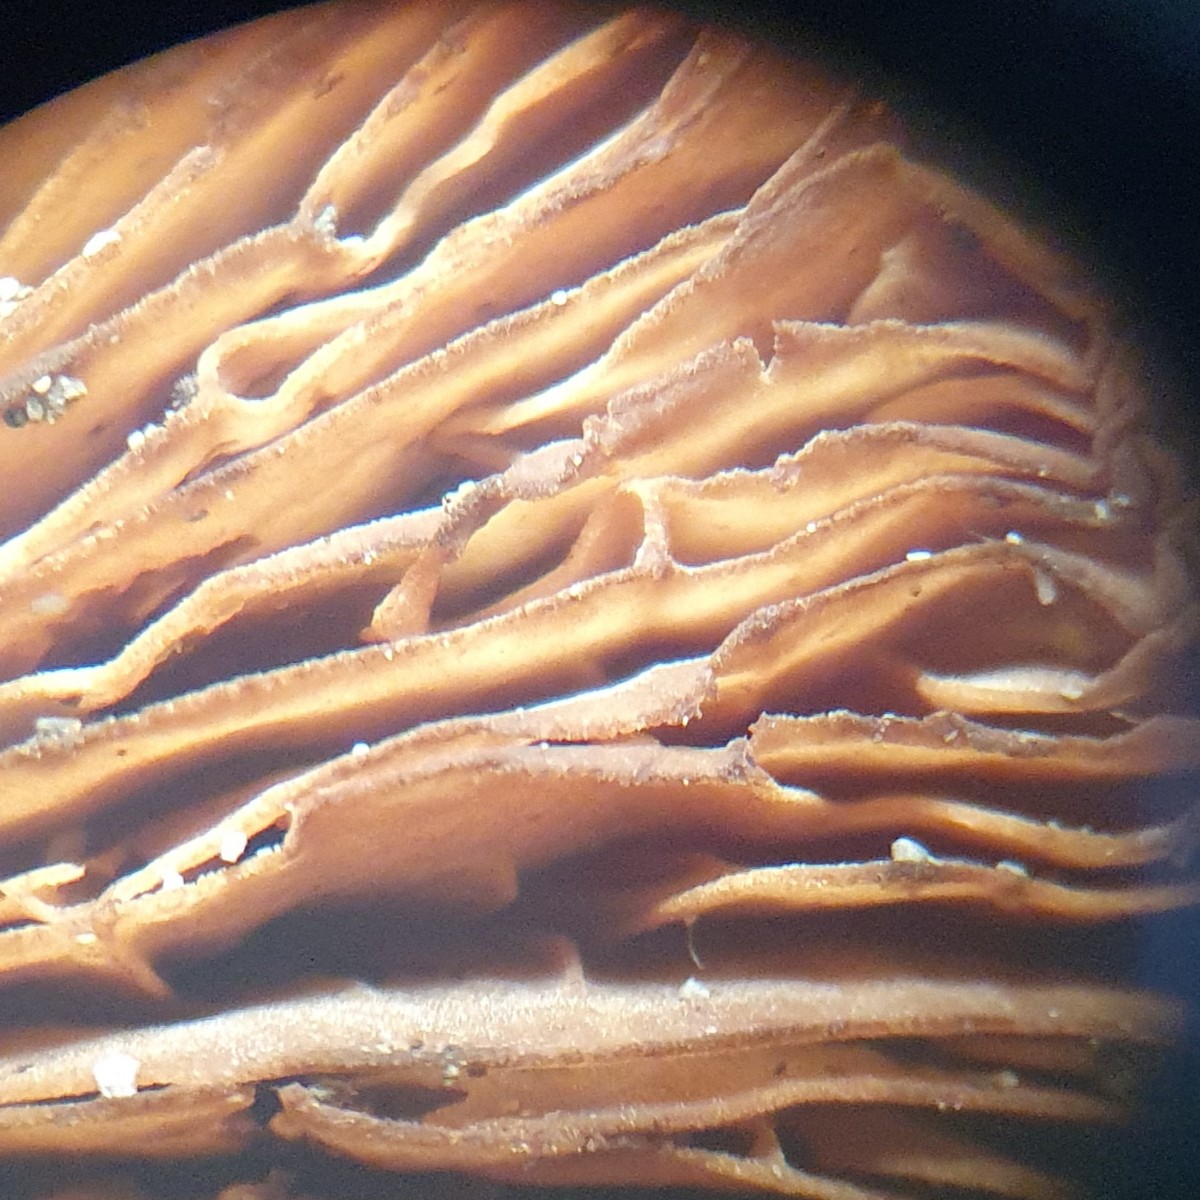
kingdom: Fungi
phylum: Basidiomycota
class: Agaricomycetes
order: Agaricales
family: Inocybaceae
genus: Inocybe
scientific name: Inocybe dulcamara
